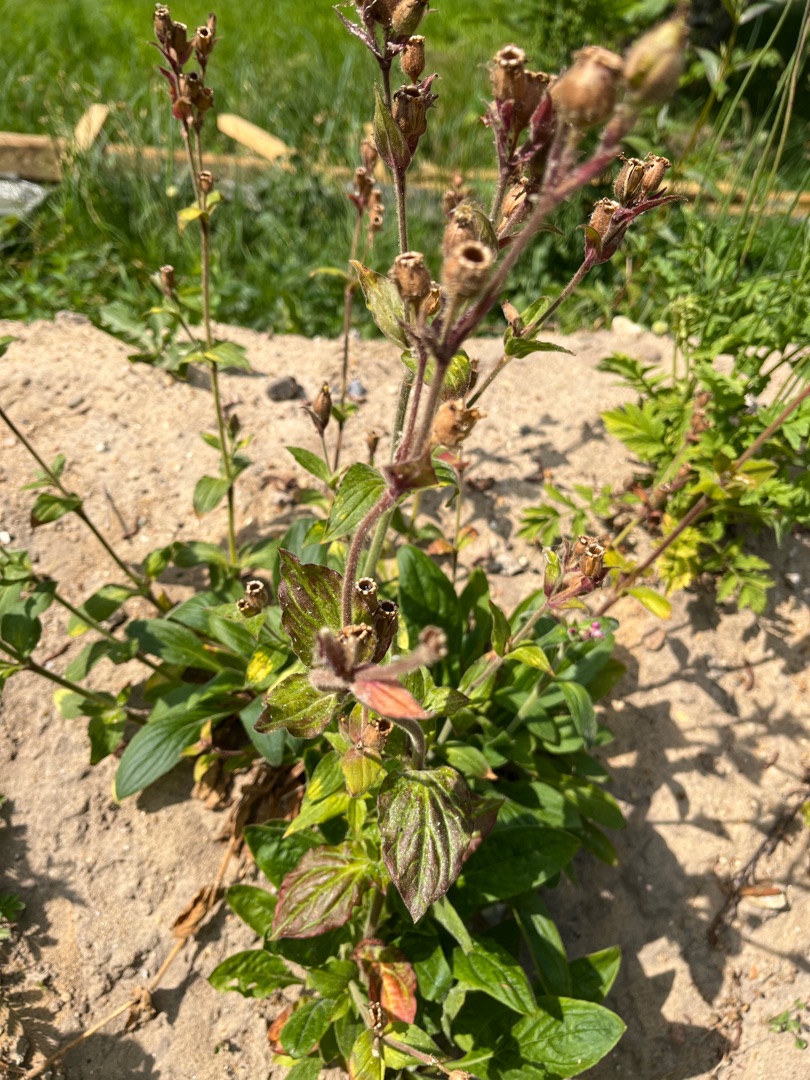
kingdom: Plantae
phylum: Tracheophyta
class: Magnoliopsida
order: Caryophyllales
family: Caryophyllaceae
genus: Silene
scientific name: Silene dioica
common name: Dagpragtstjerne
